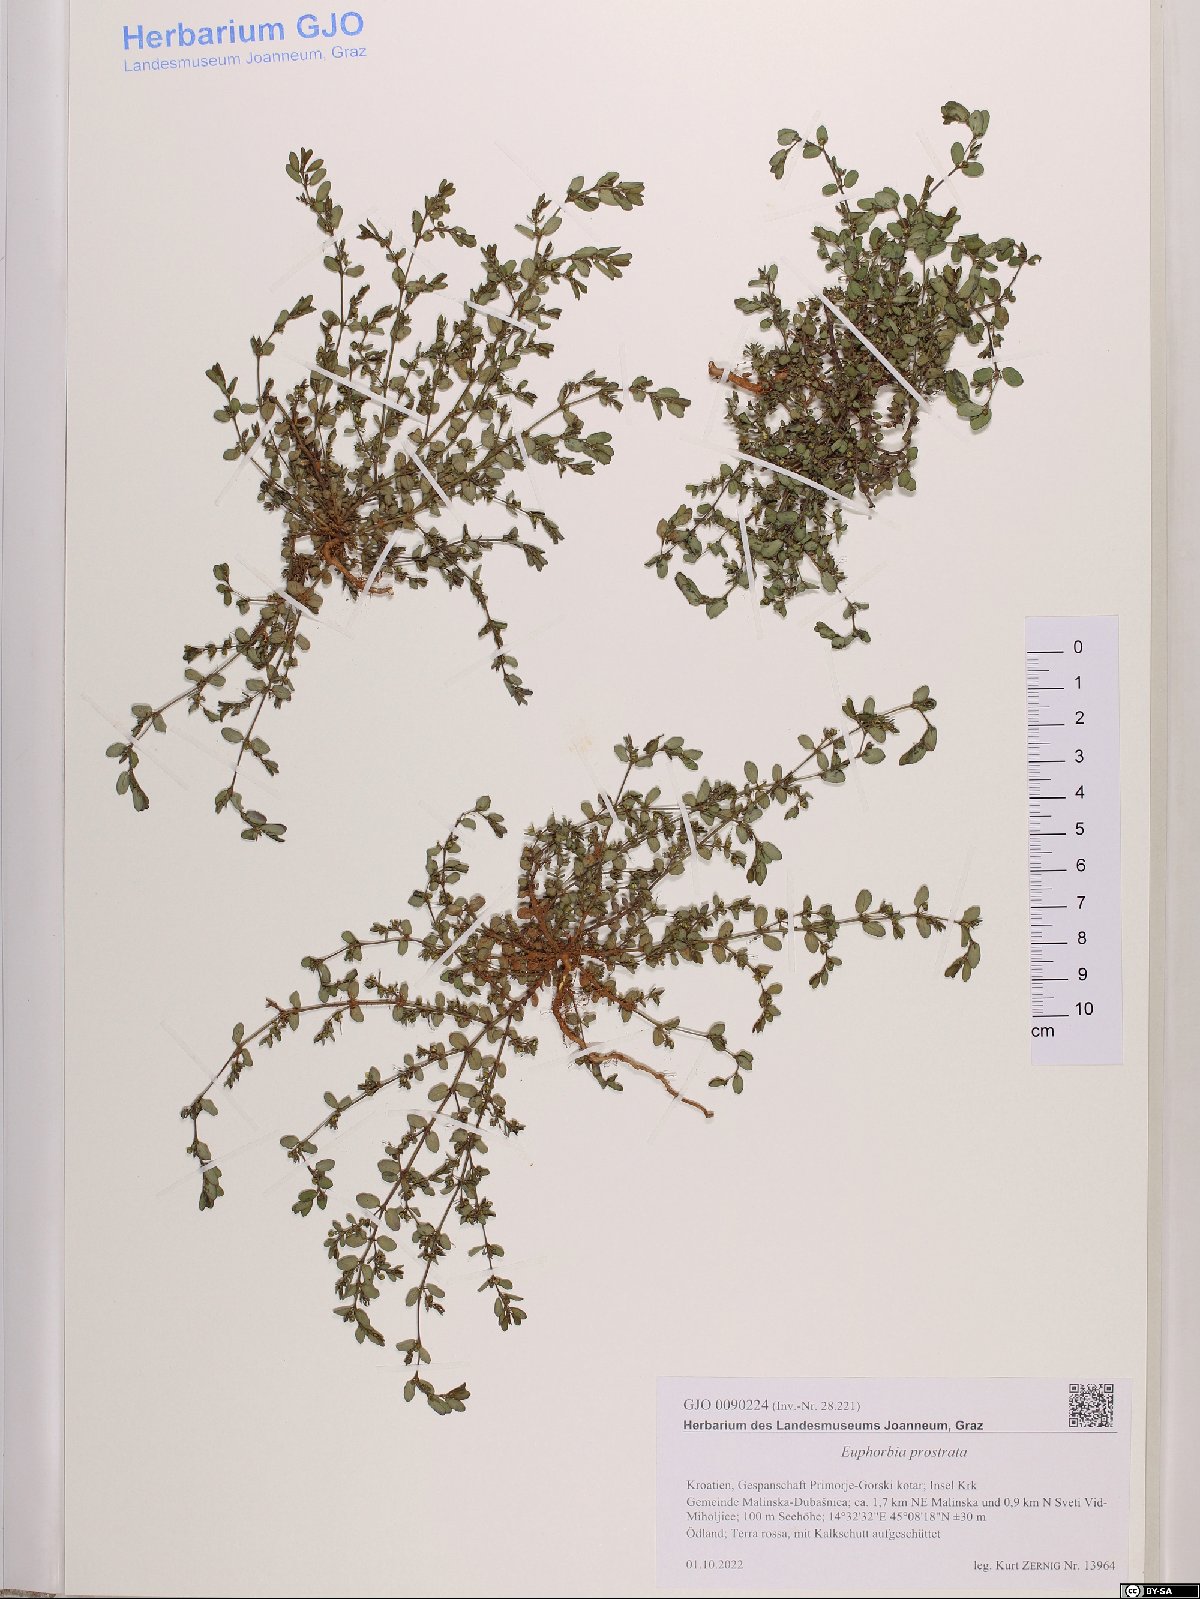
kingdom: Plantae
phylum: Tracheophyta
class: Magnoliopsida
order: Malpighiales
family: Euphorbiaceae
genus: Euphorbia
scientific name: Euphorbia prostrata
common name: Prostrate sandmat
